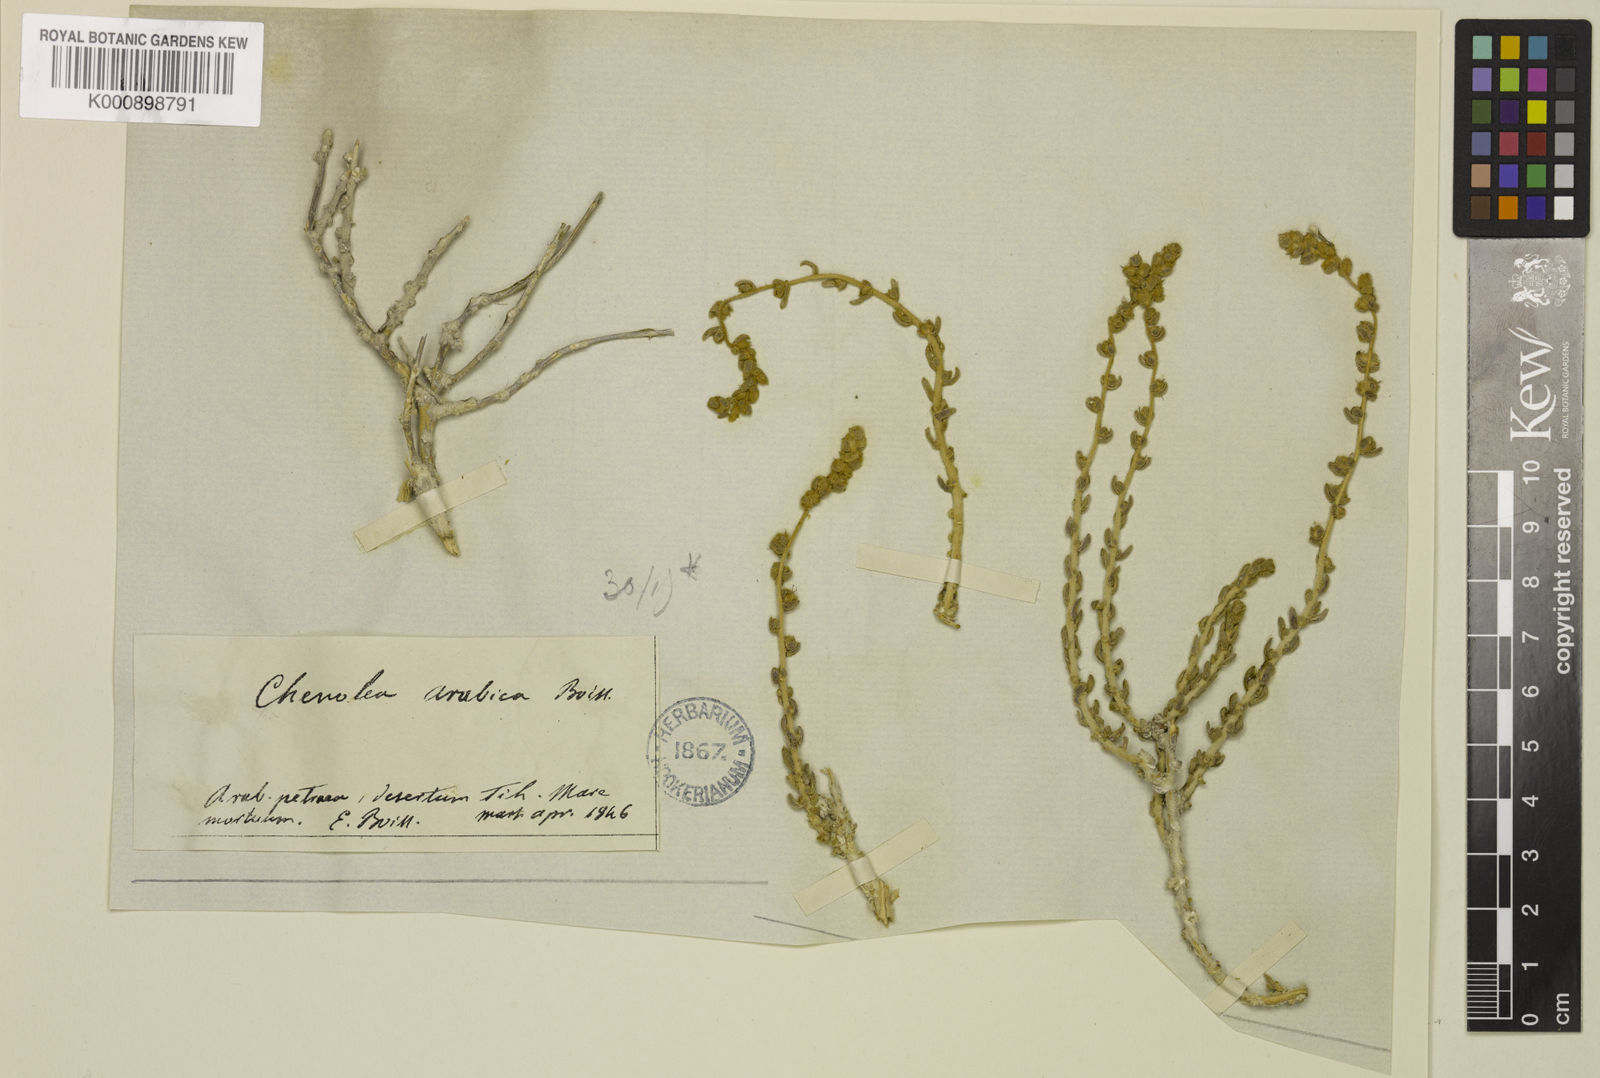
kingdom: Plantae
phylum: Tracheophyta
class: Magnoliopsida
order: Caryophyllales
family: Amaranthaceae
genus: Bassia
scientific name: Bassia arabica
